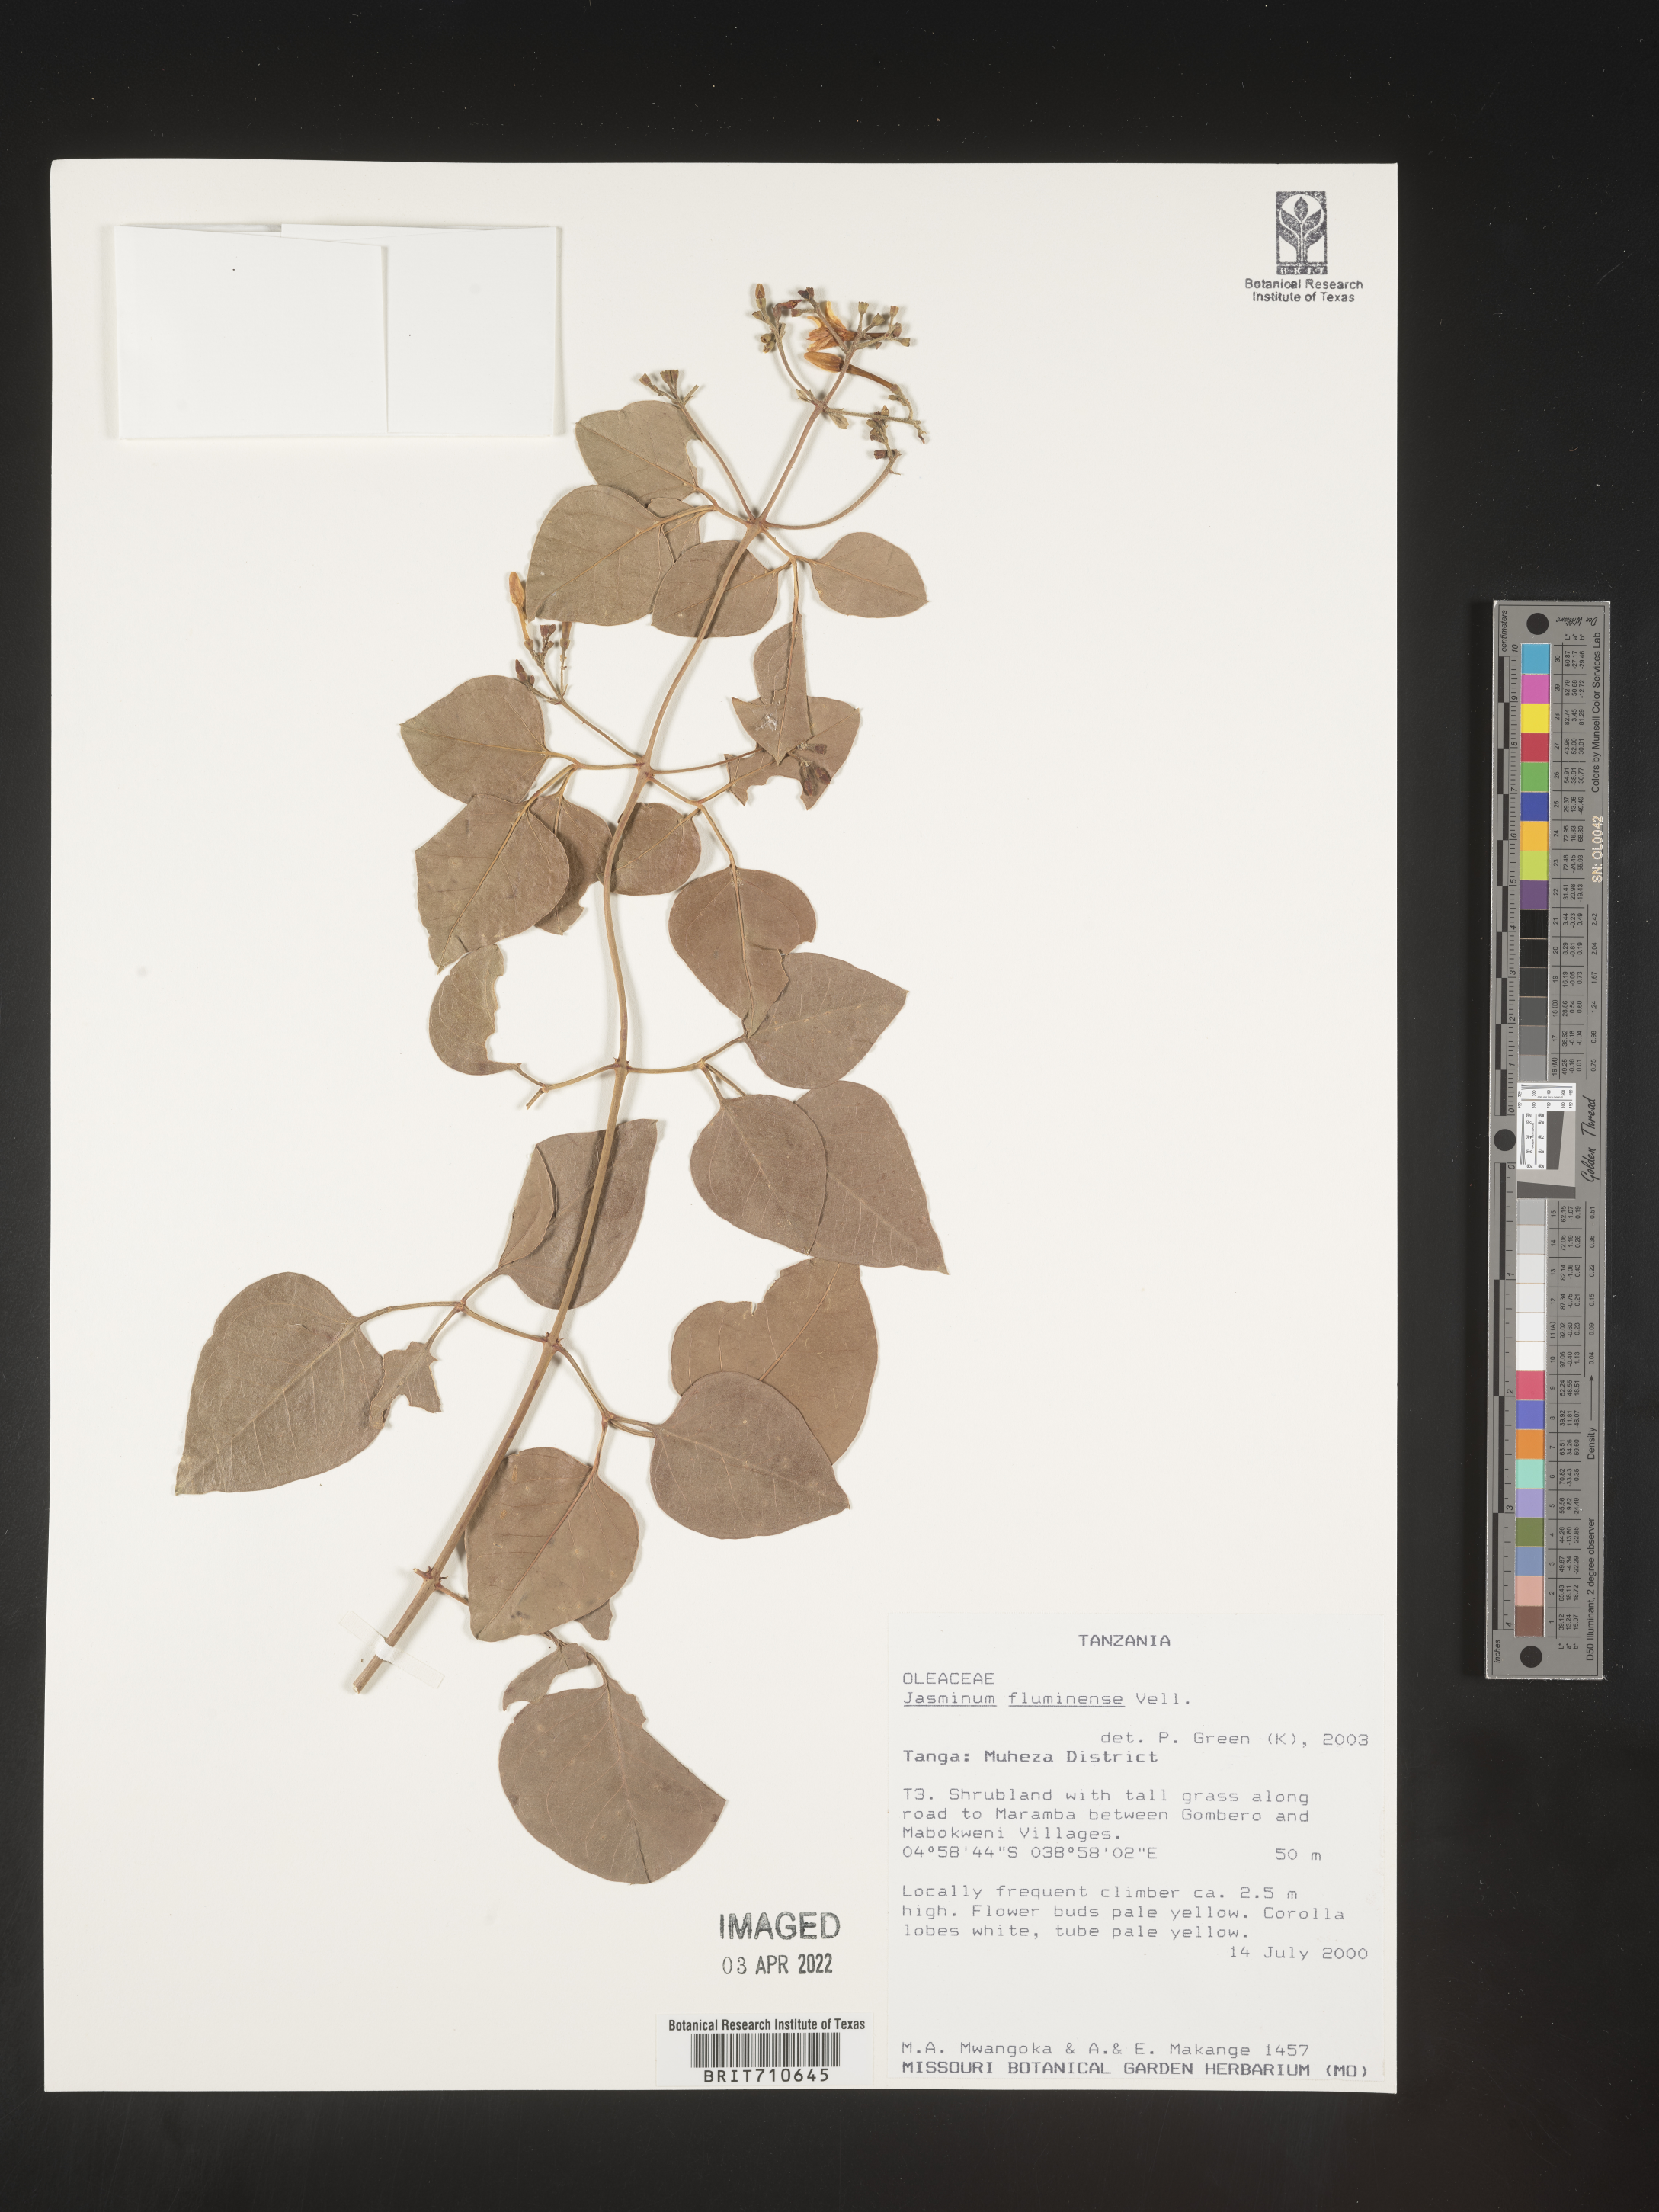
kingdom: Plantae
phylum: Tracheophyta
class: Magnoliopsida
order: Lamiales
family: Oleaceae
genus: Jasminum
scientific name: Jasminum
